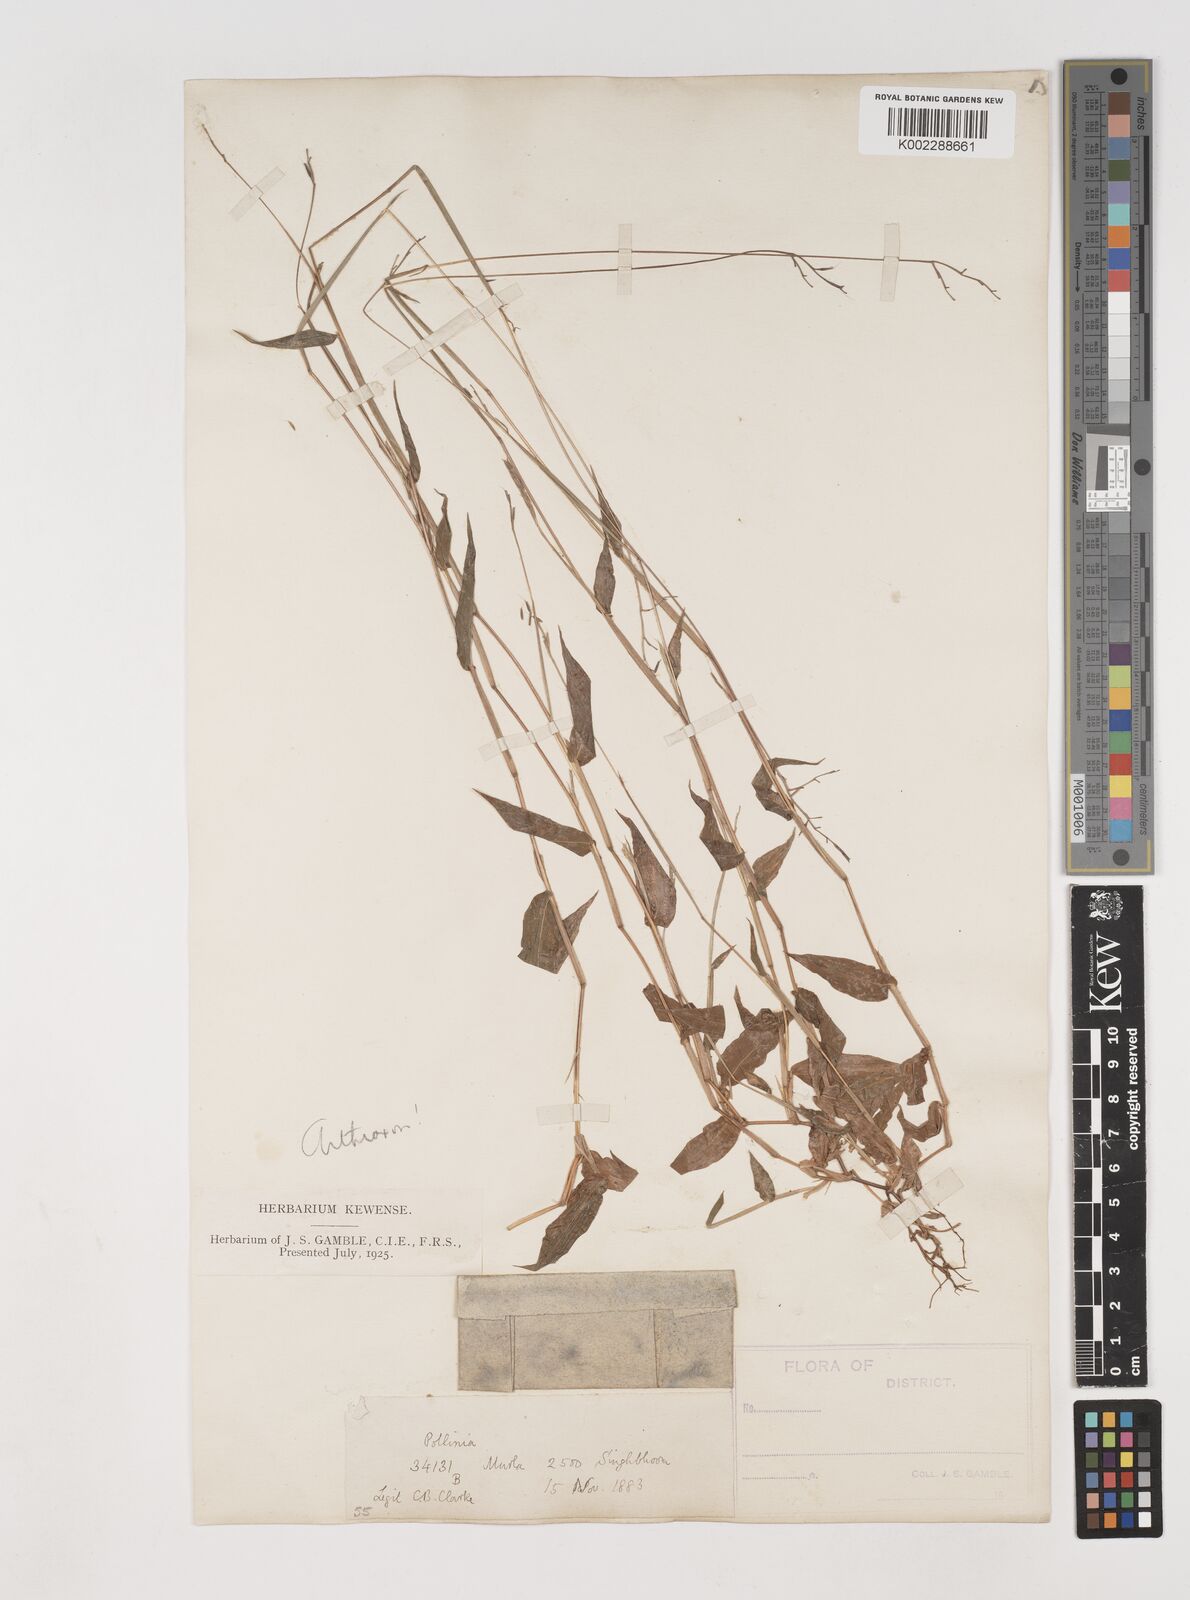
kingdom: Plantae
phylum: Tracheophyta
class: Liliopsida
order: Poales
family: Poaceae
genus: Arthraxon
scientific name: Arthraxon nudus
